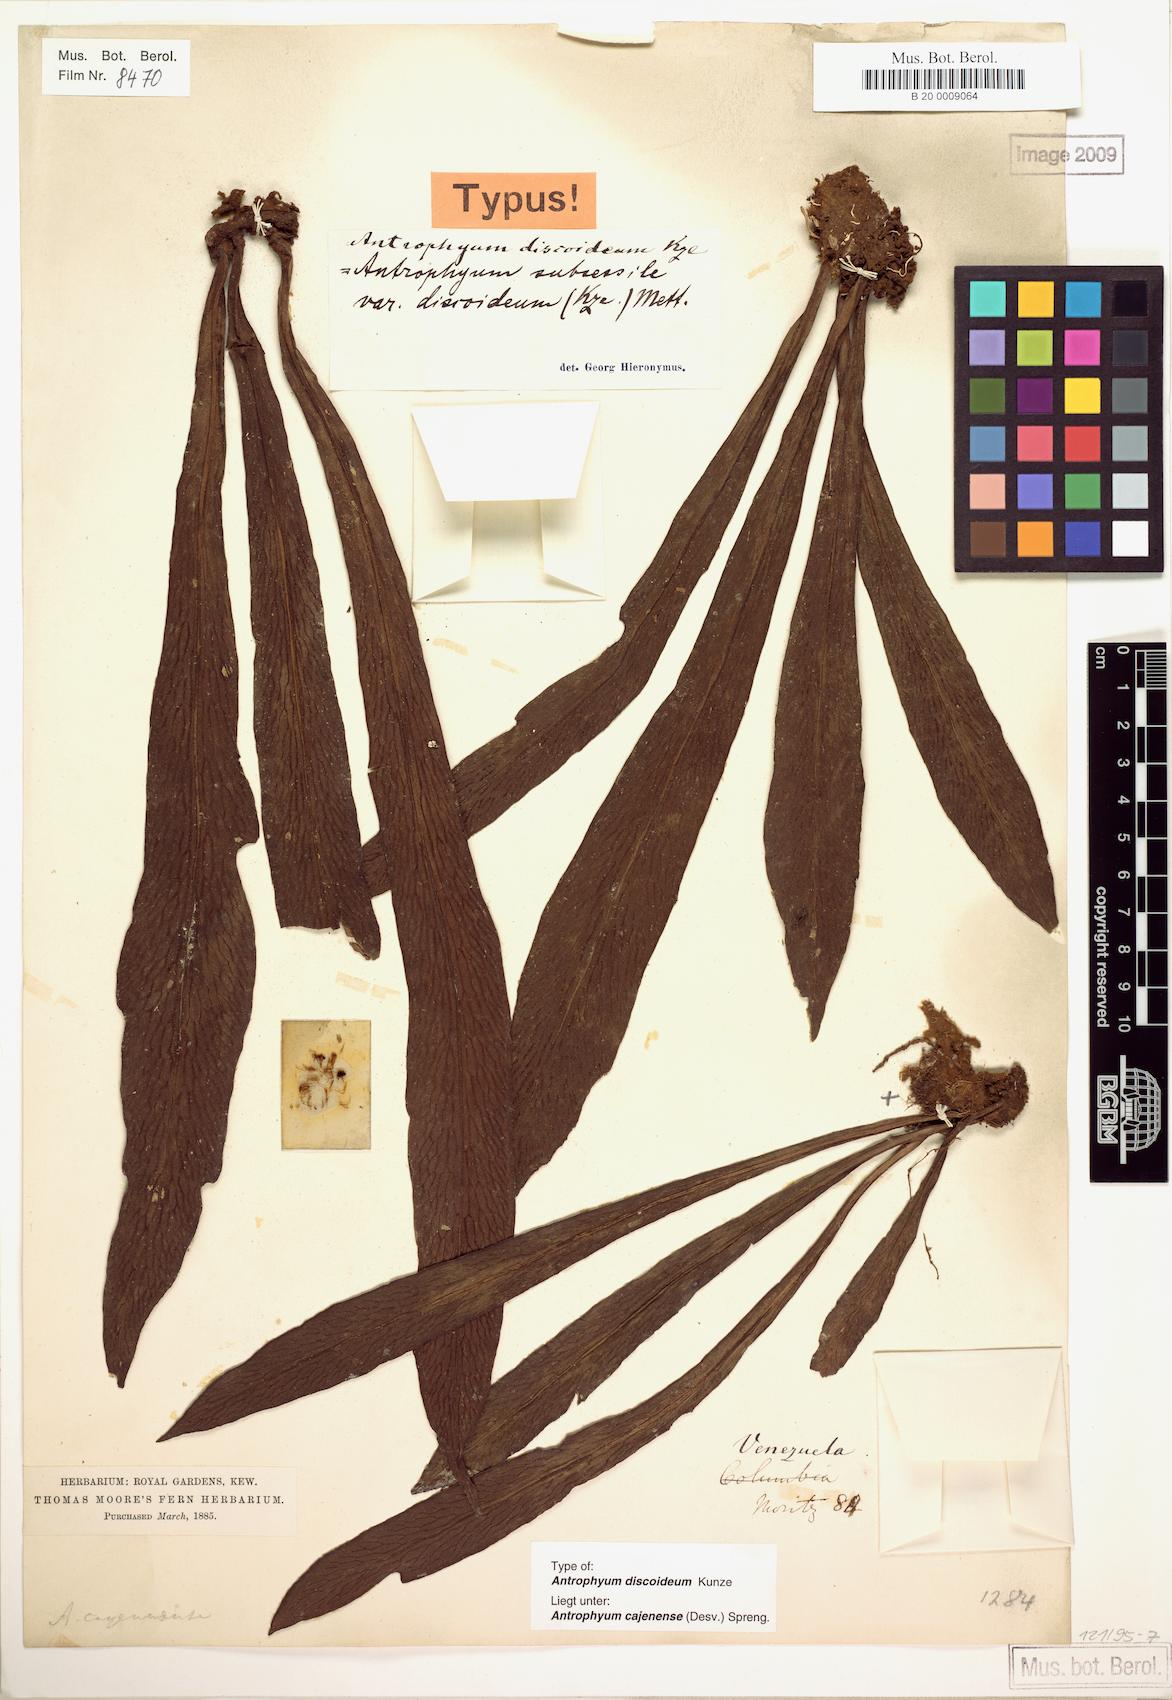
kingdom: Plantae
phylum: Tracheophyta
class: Polypodiopsida
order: Polypodiales
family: Pteridaceae
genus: Polytaenium
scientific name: Polytaenium cajenense
